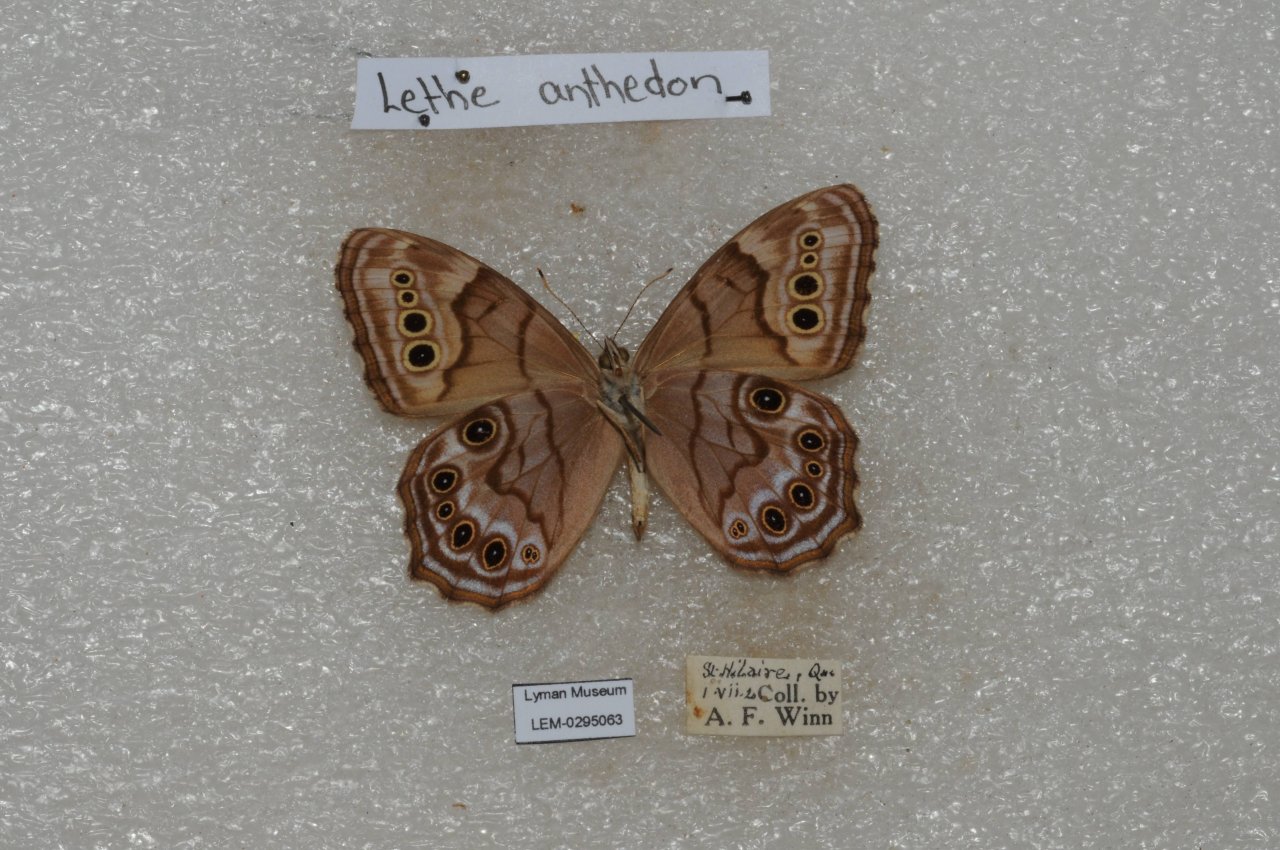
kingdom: Animalia
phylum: Arthropoda
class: Insecta
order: Lepidoptera
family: Nymphalidae
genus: Lethe
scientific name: Lethe anthedon
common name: Northern Pearly-Eye
